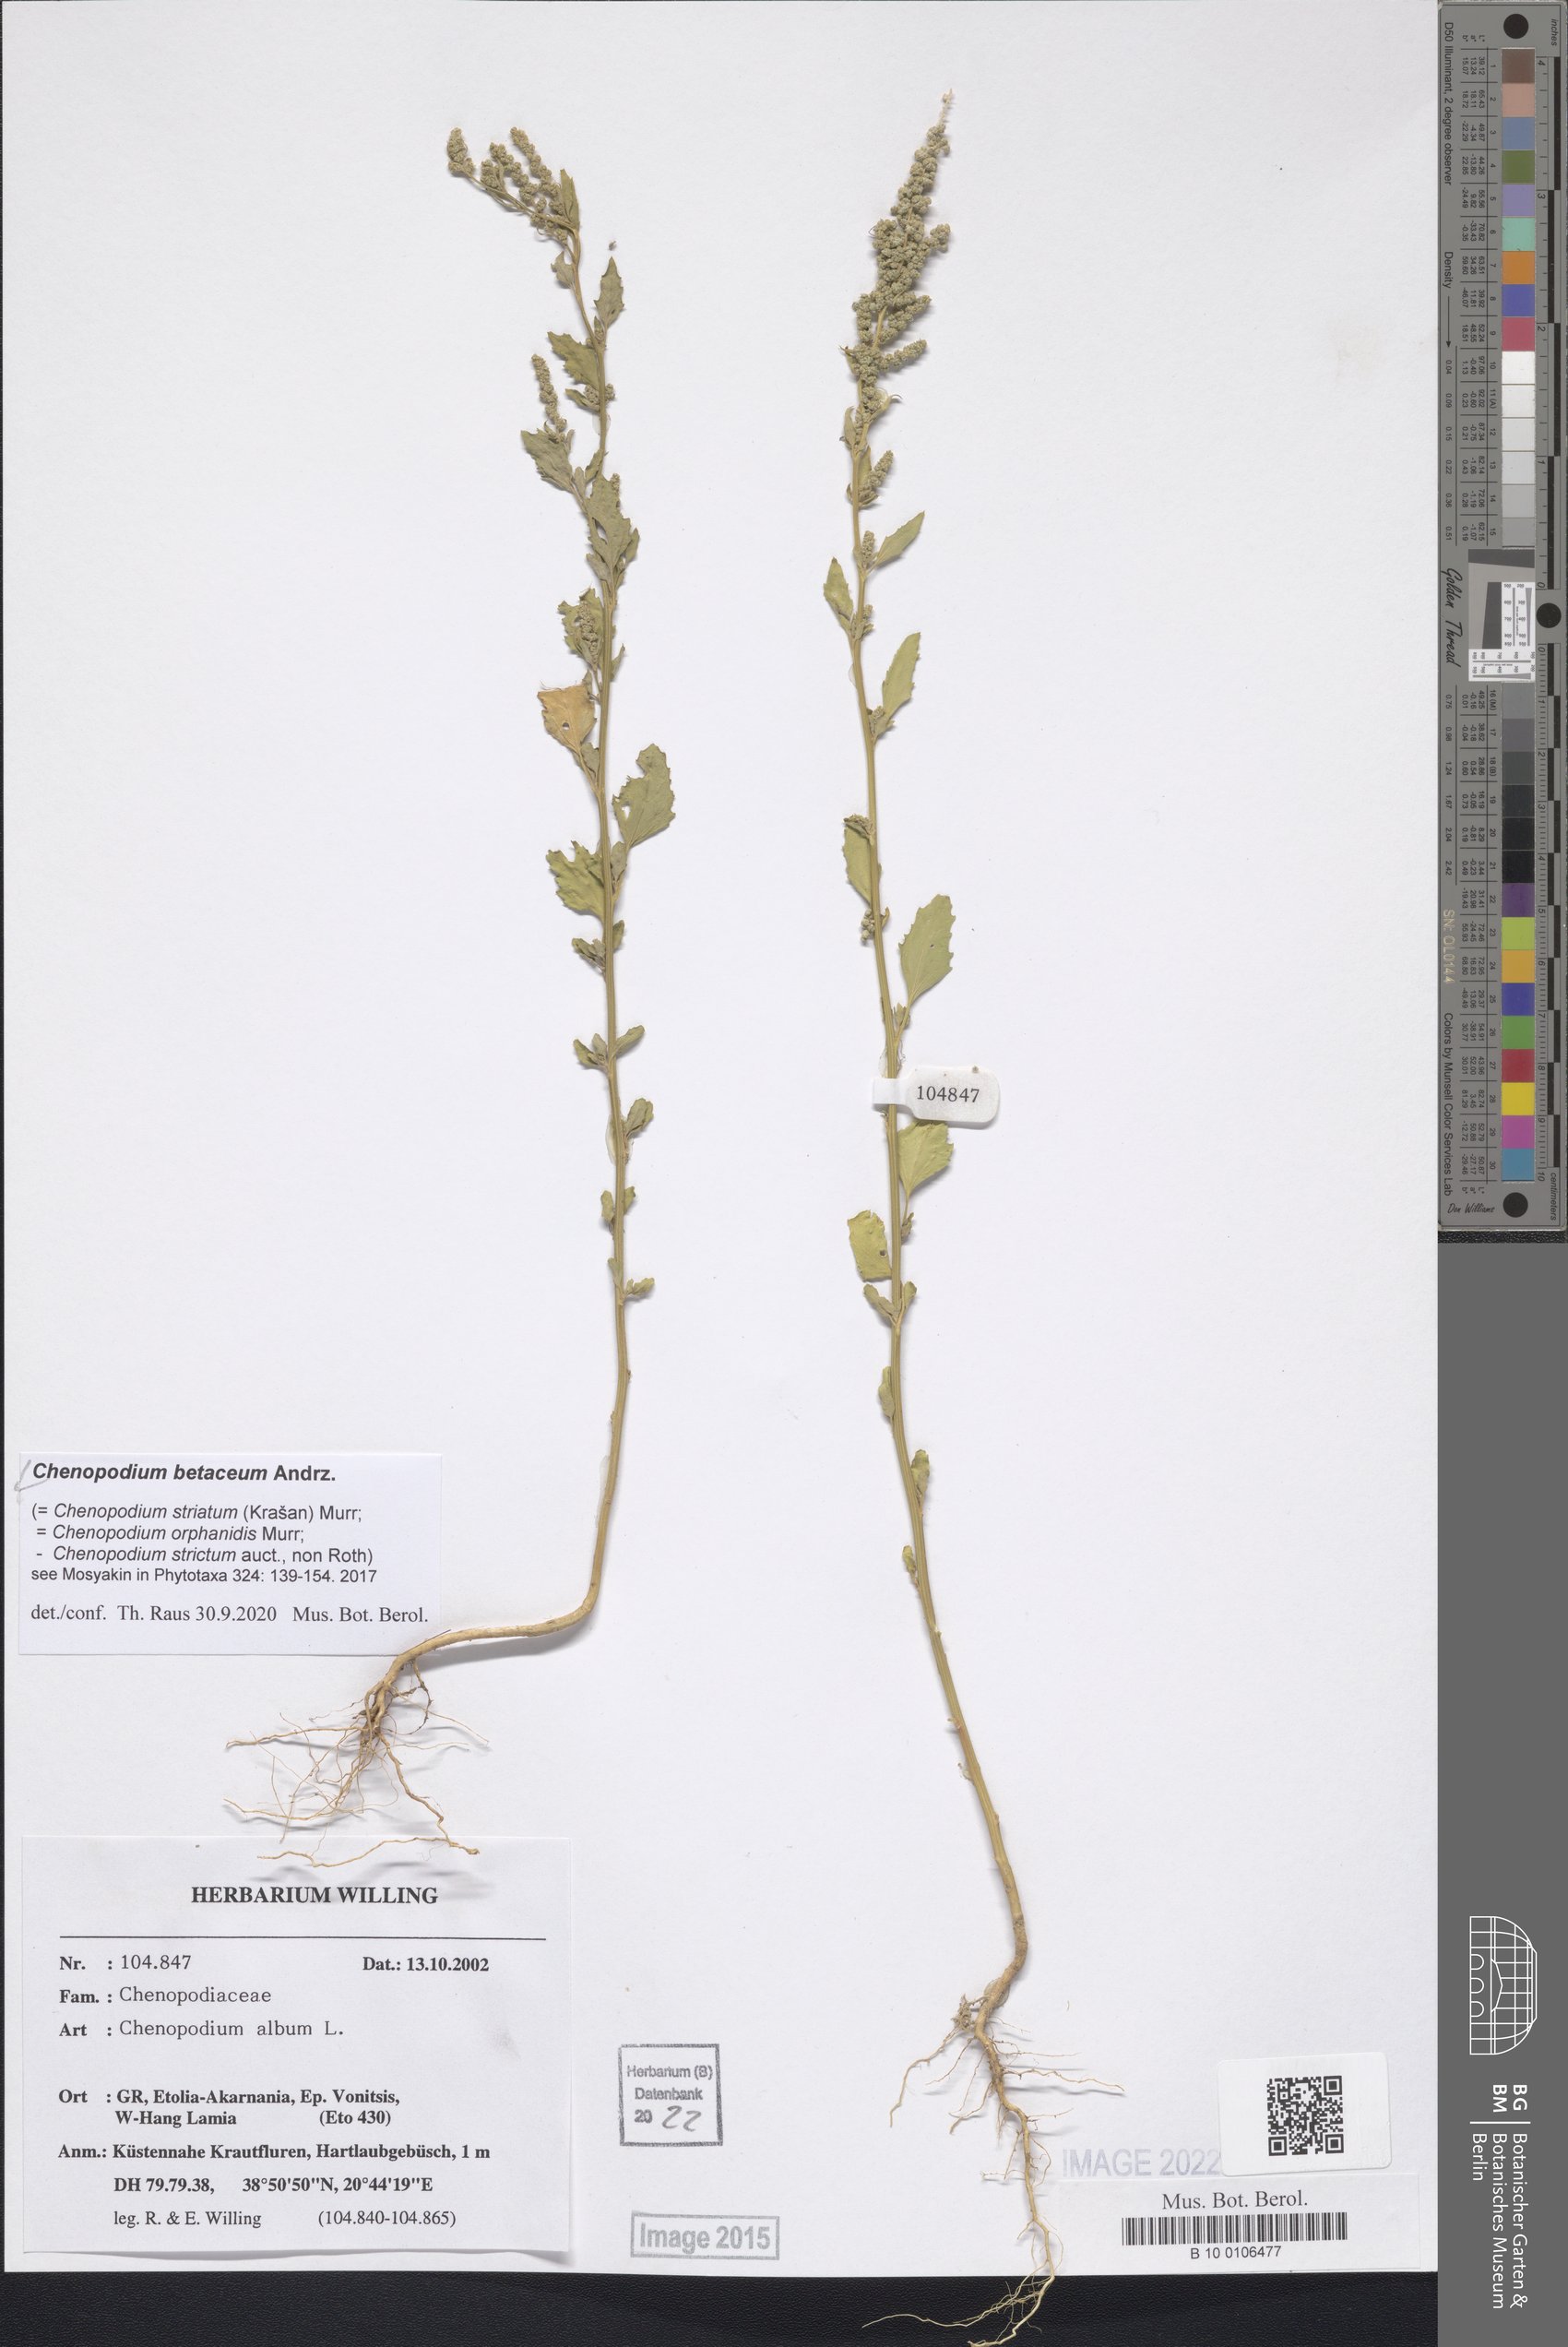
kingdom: Plantae
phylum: Tracheophyta
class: Magnoliopsida
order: Caryophyllales
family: Amaranthaceae
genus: Chenopodium
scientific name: Chenopodium betaceum
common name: Striped goosefoot
